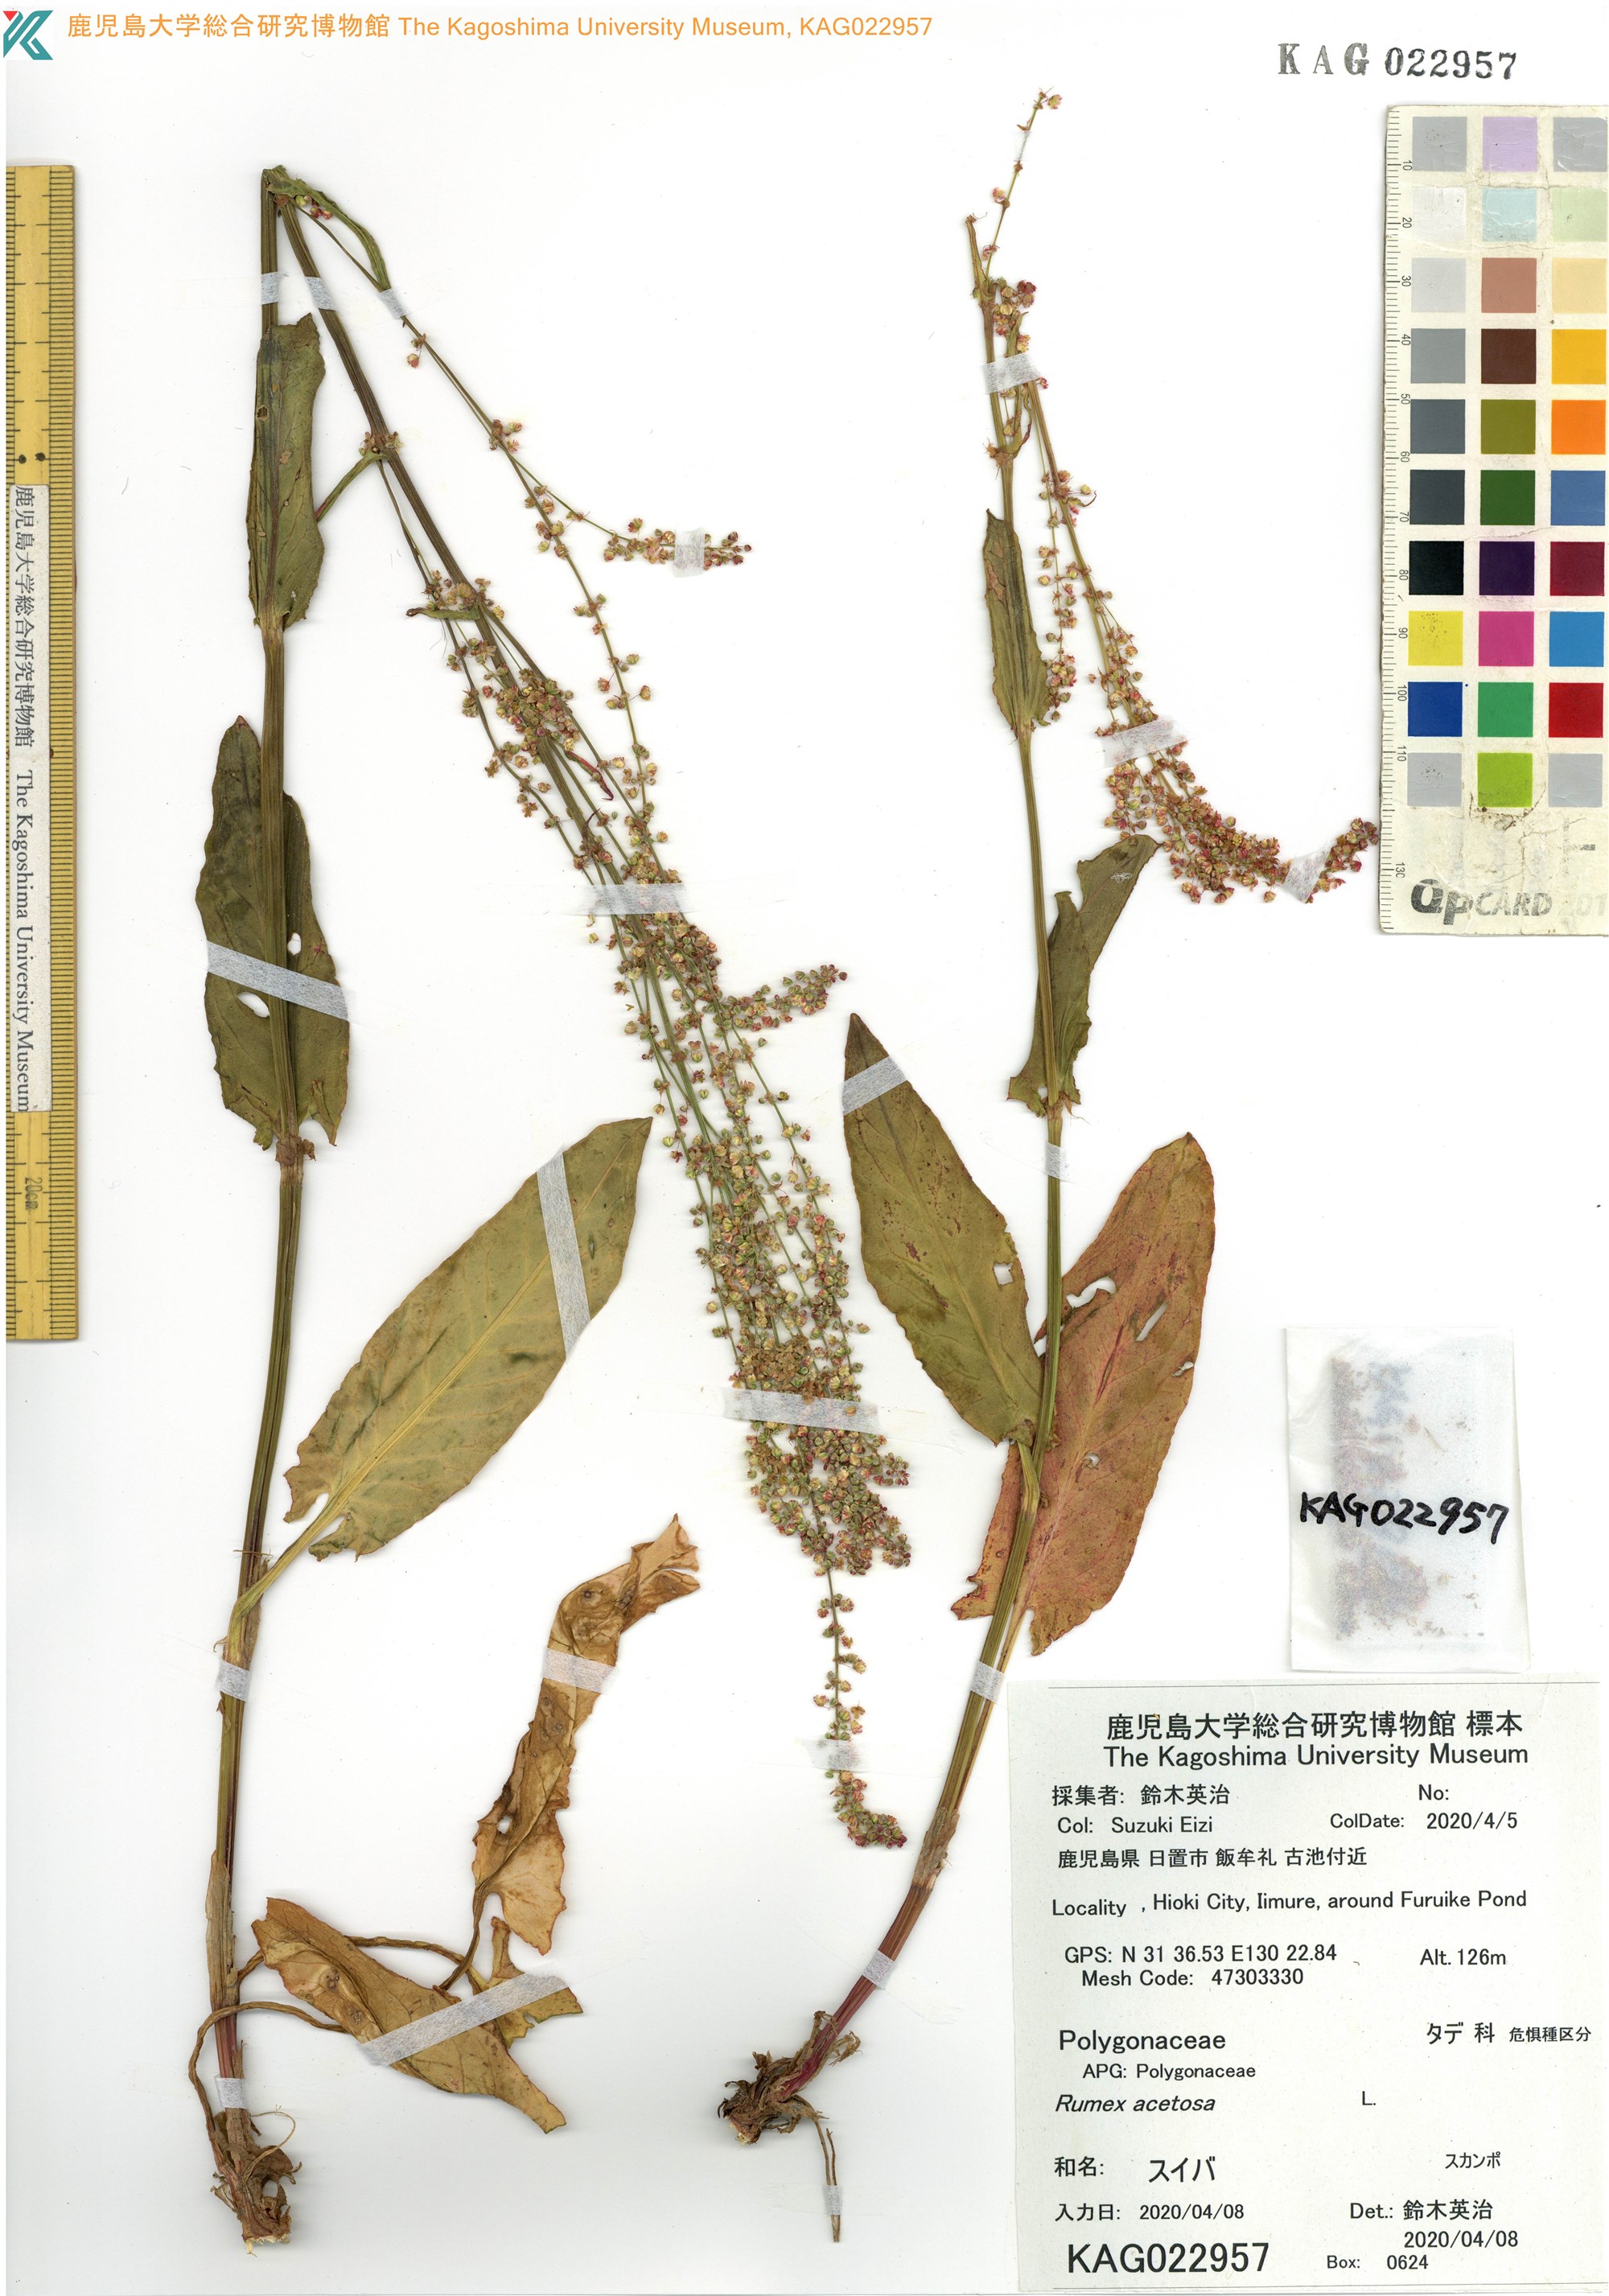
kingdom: Plantae
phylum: Tracheophyta
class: Magnoliopsida
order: Caryophyllales
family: Polygonaceae
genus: Rumex
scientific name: Rumex acetosa
